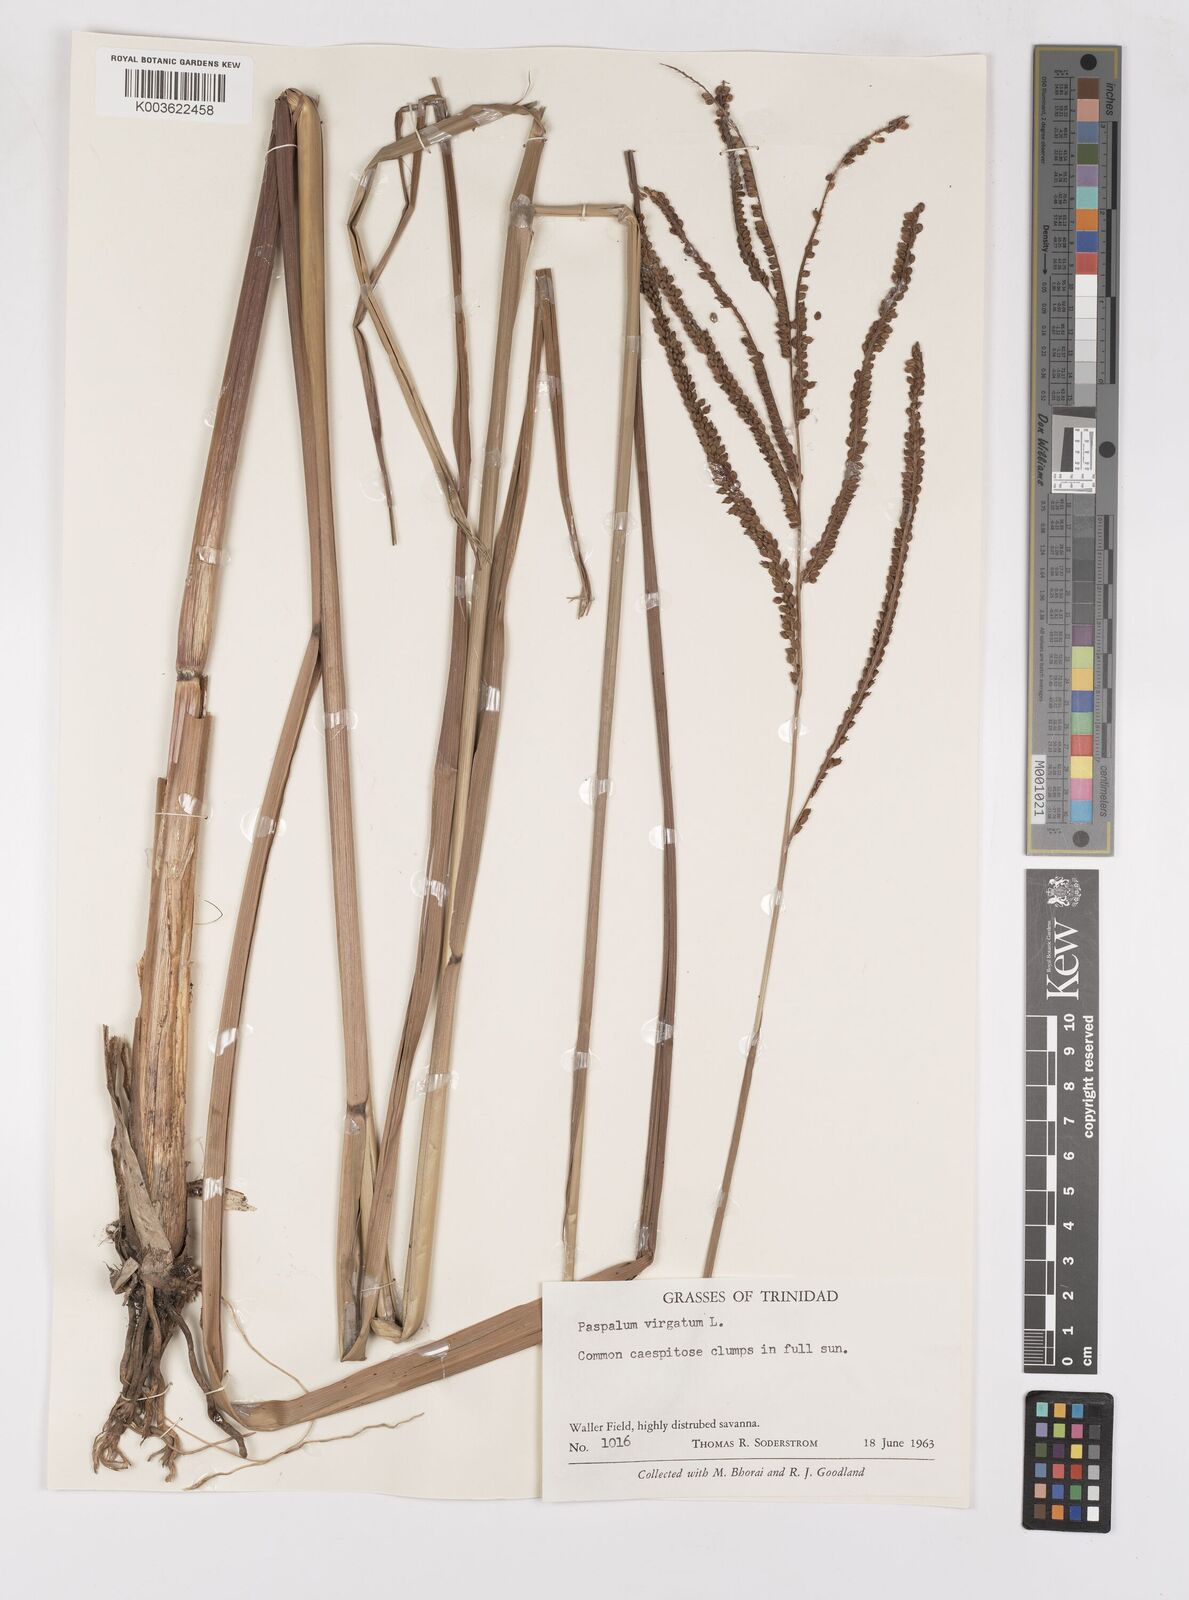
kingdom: Plantae
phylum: Tracheophyta
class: Liliopsida
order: Poales
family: Poaceae
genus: Paspalum
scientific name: Paspalum virgatum
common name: Talquezal
